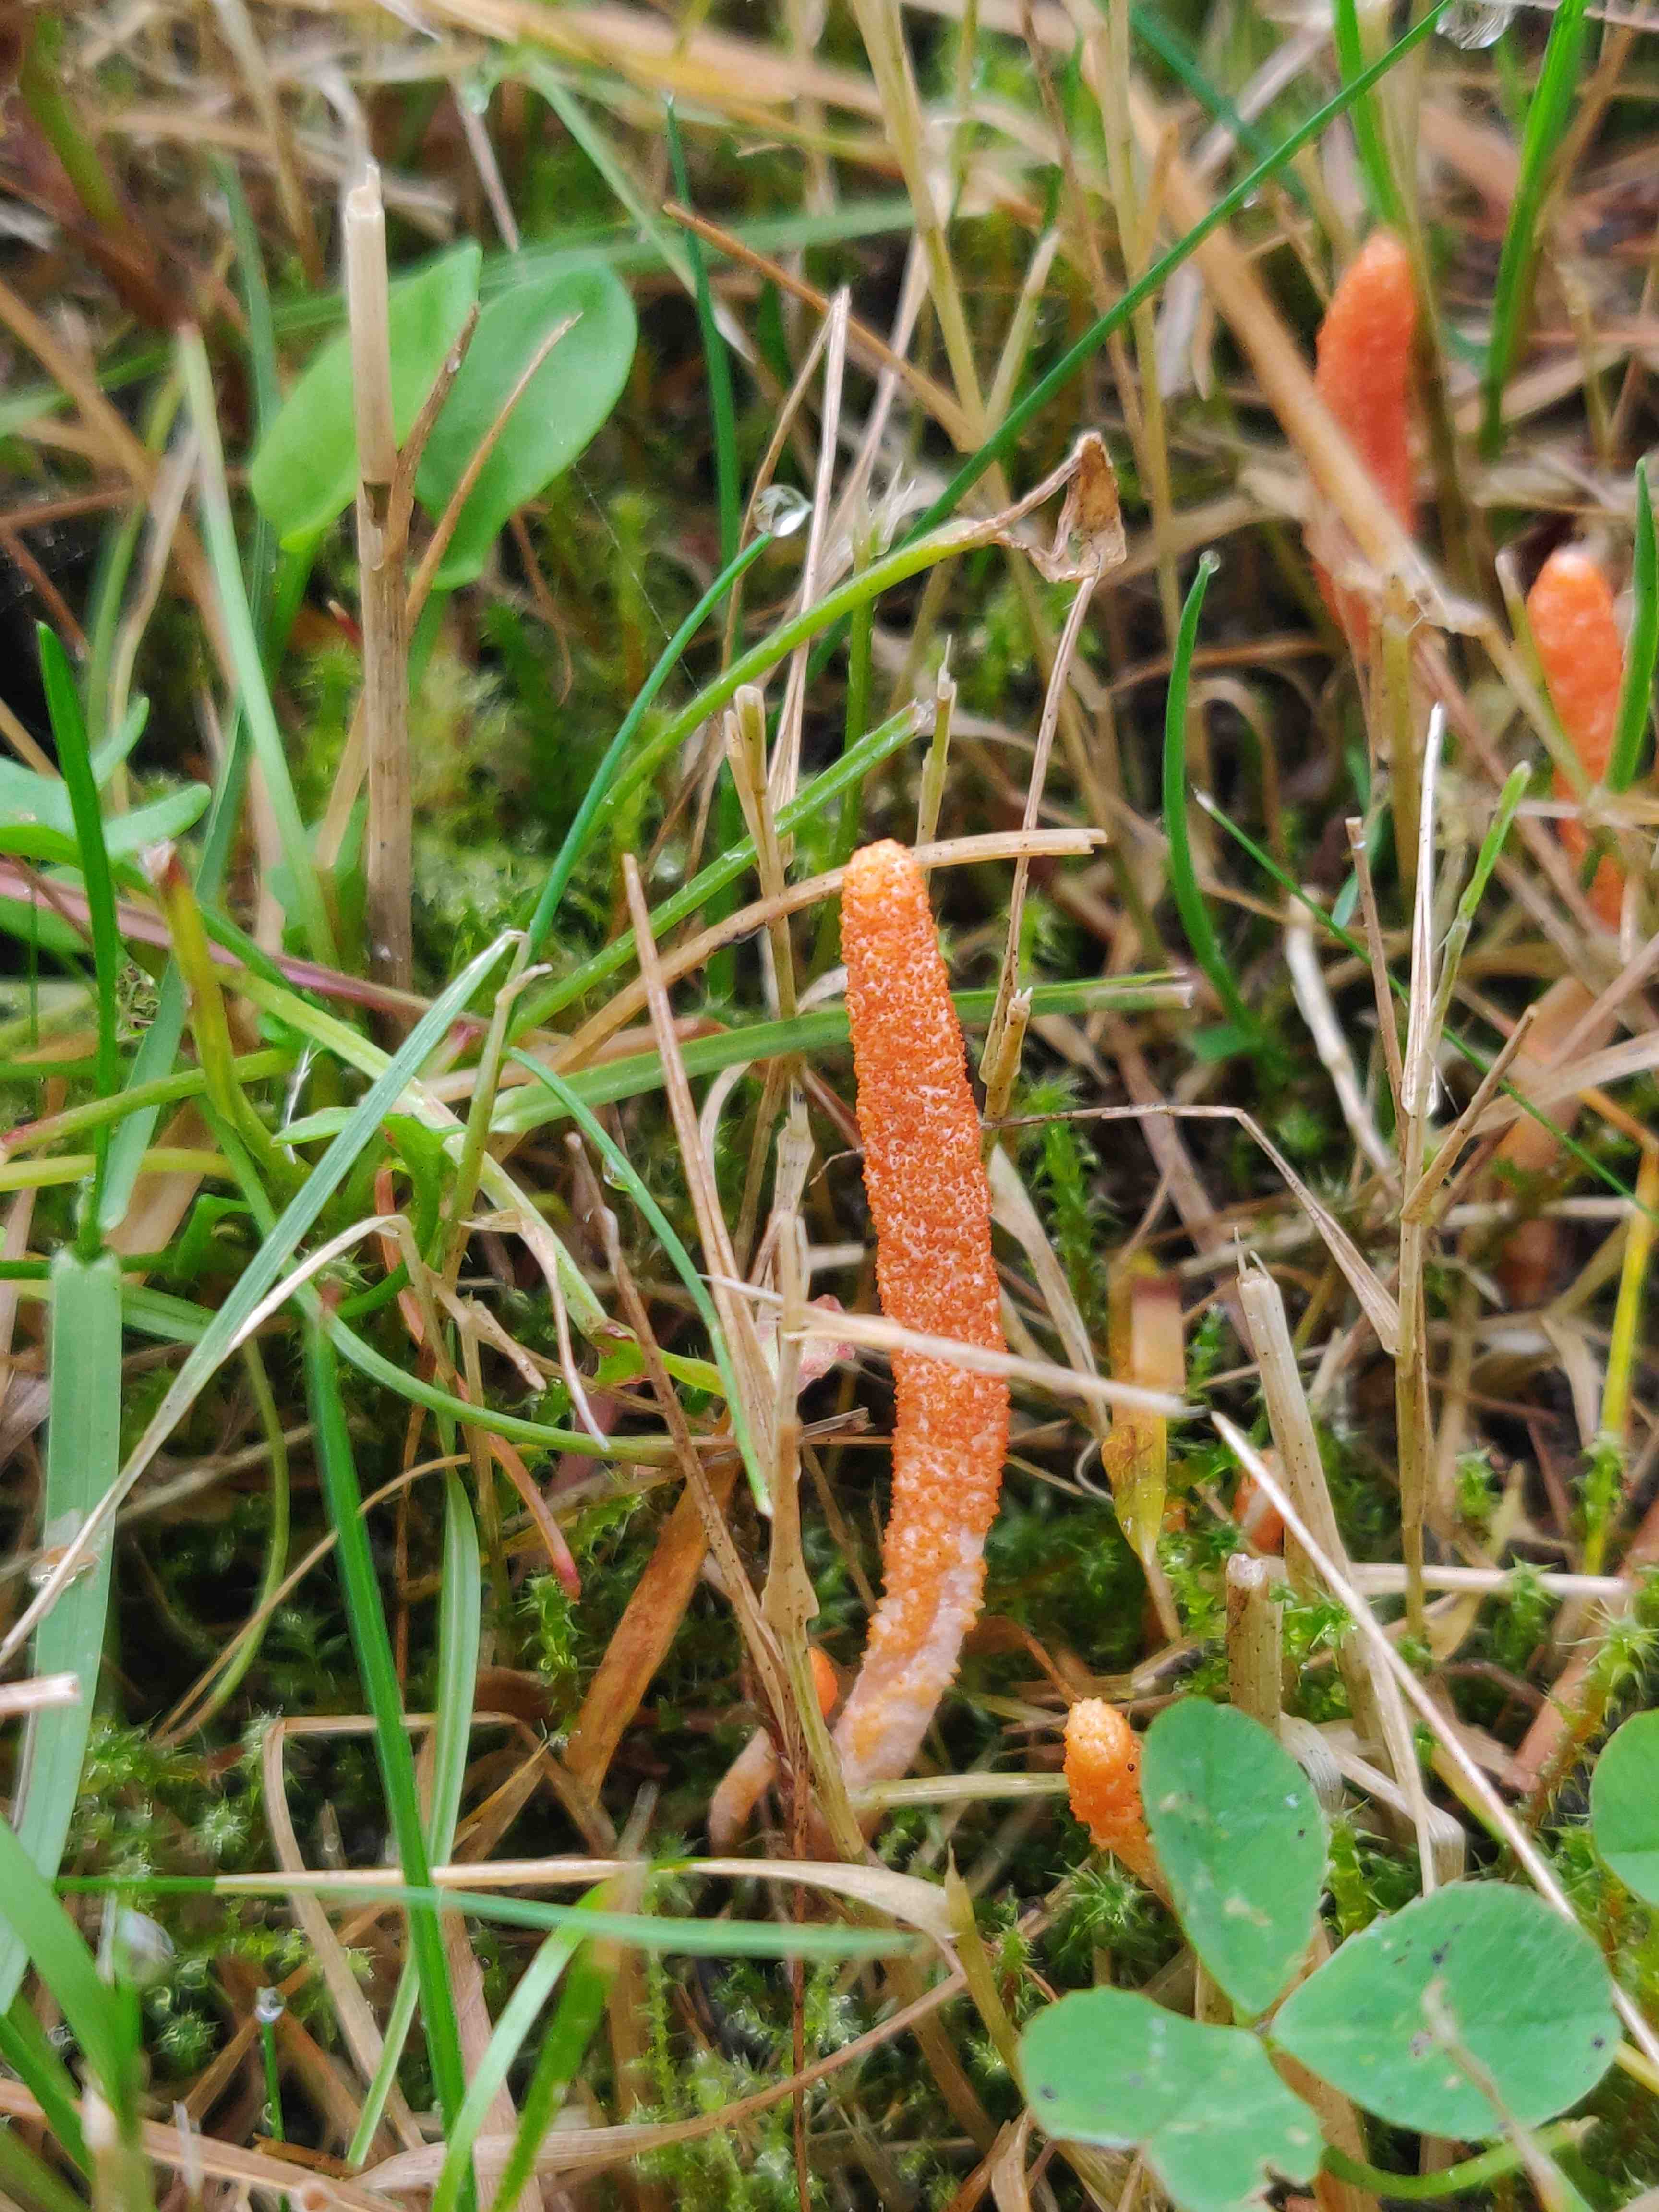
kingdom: Fungi
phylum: Ascomycota
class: Sordariomycetes
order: Hypocreales
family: Cordycipitaceae
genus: Cordyceps
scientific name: Cordyceps militaris
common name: puppe-snyltekølle
